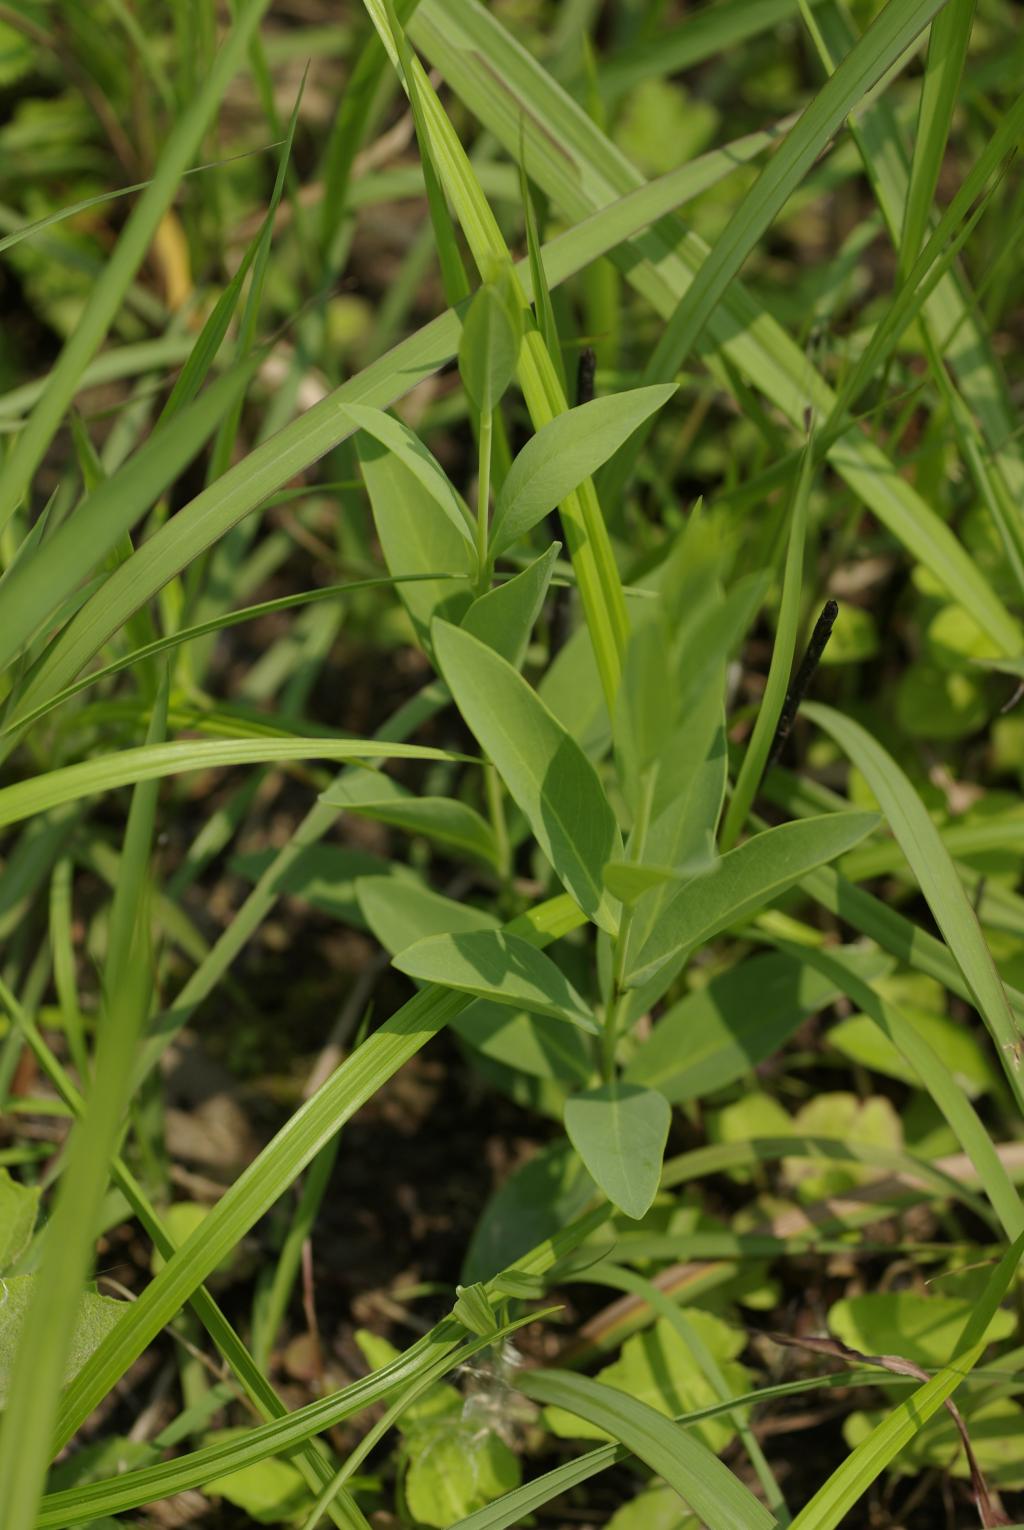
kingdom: Plantae
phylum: Tracheophyta
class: Magnoliopsida
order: Malvales
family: Thymelaeaceae
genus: Wikstroemia
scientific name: Wikstroemia indica
